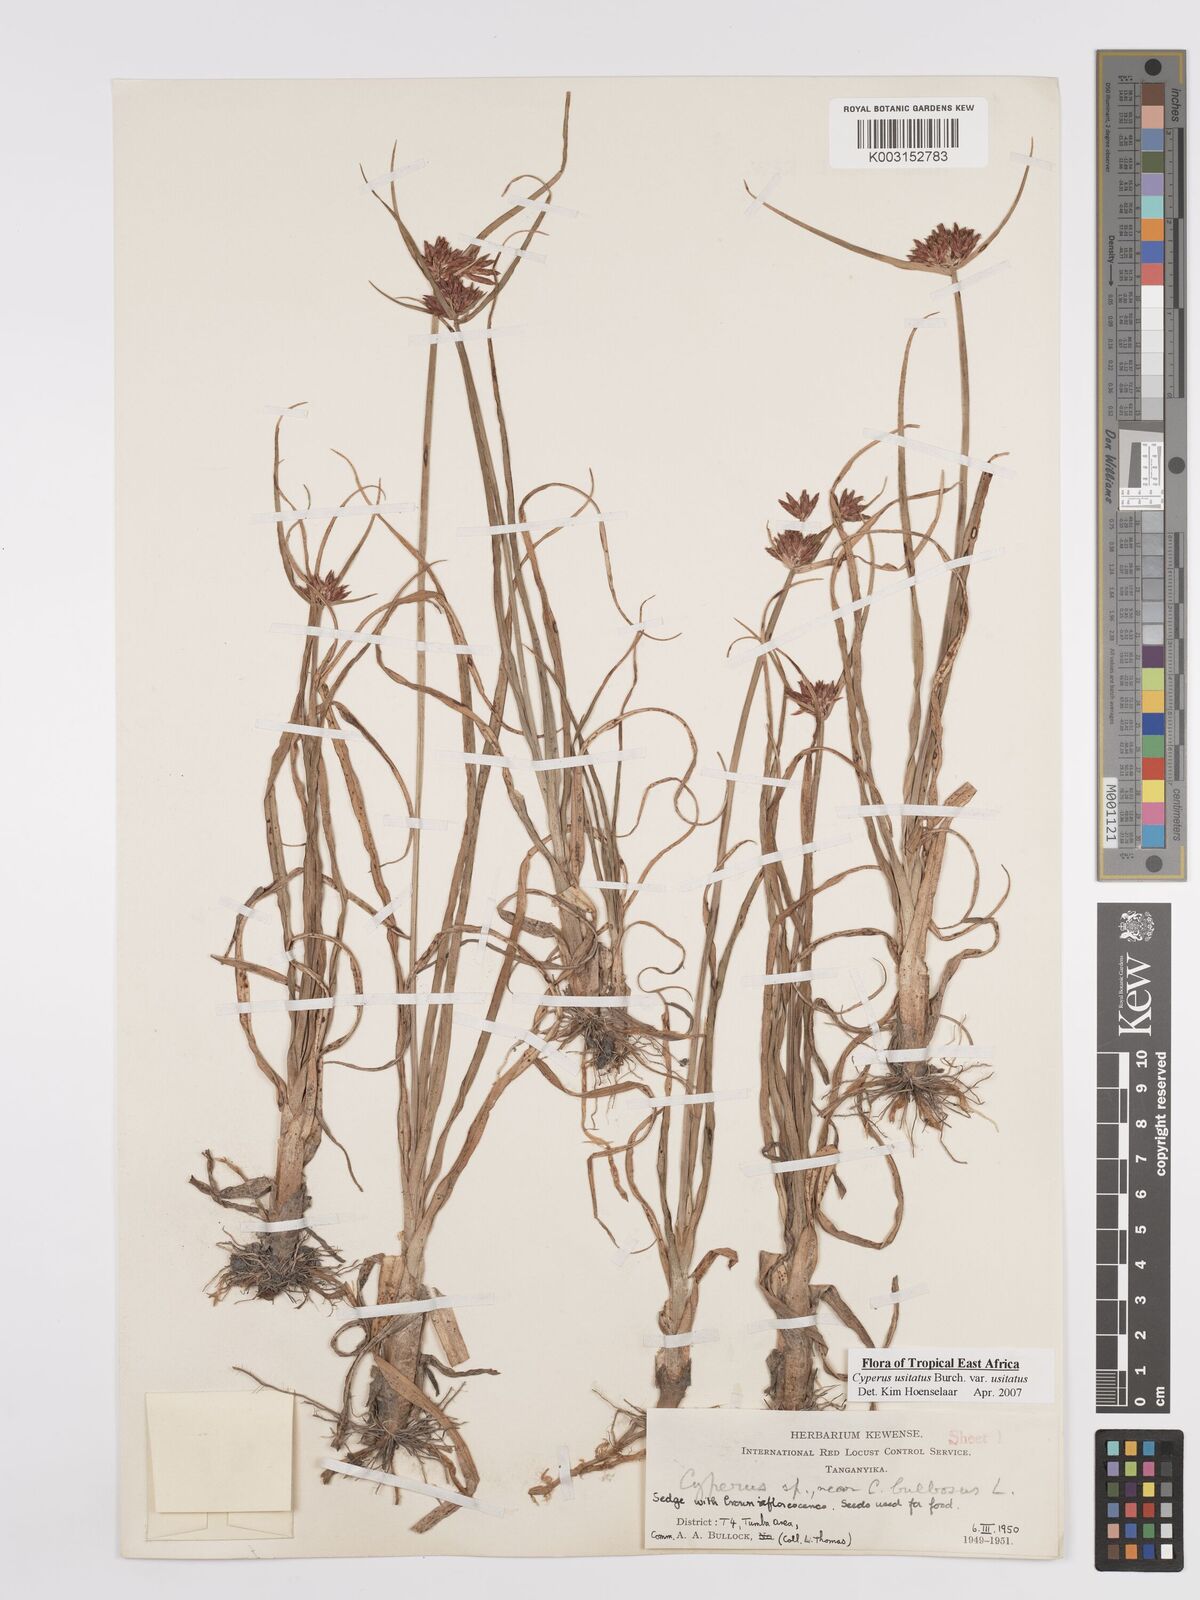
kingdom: Plantae
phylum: Tracheophyta
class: Liliopsida
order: Poales
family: Cyperaceae
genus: Cyperus
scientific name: Cyperus usitatus
